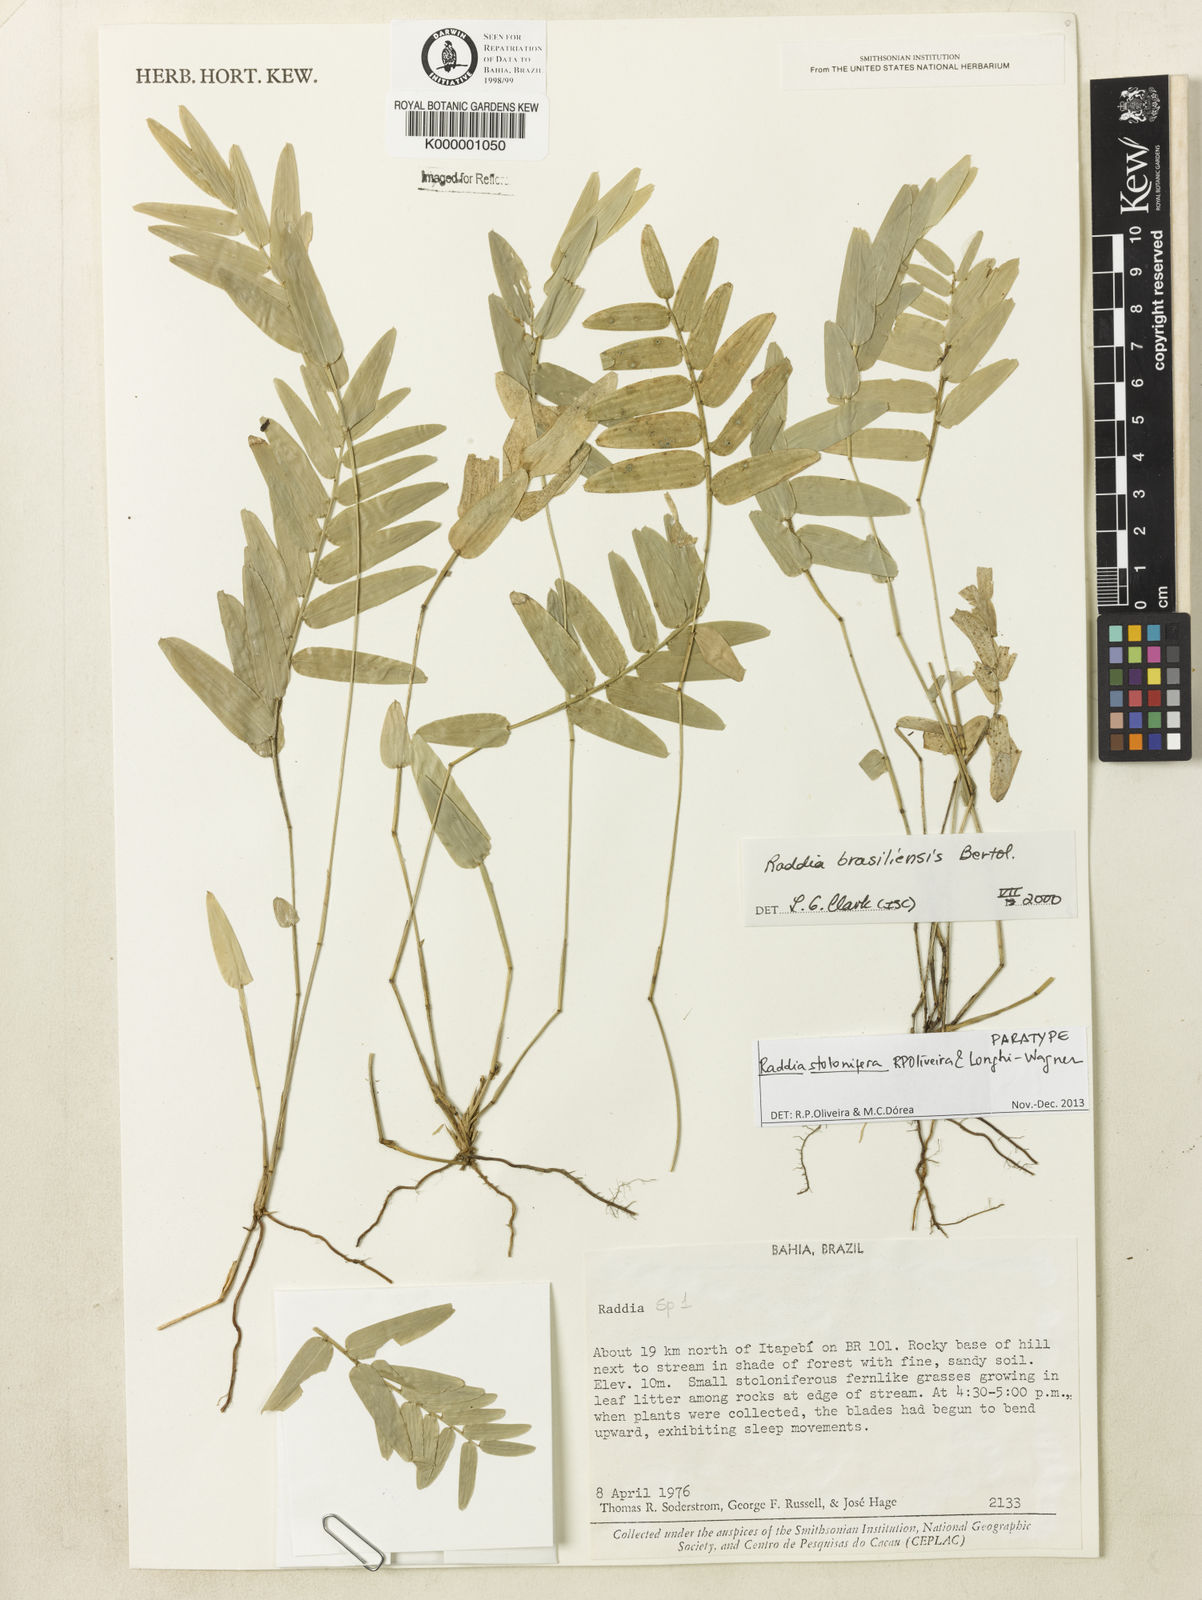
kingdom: Plantae
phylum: Tracheophyta
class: Liliopsida
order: Poales
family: Poaceae
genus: Raddia
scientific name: Raddia distichophylla
